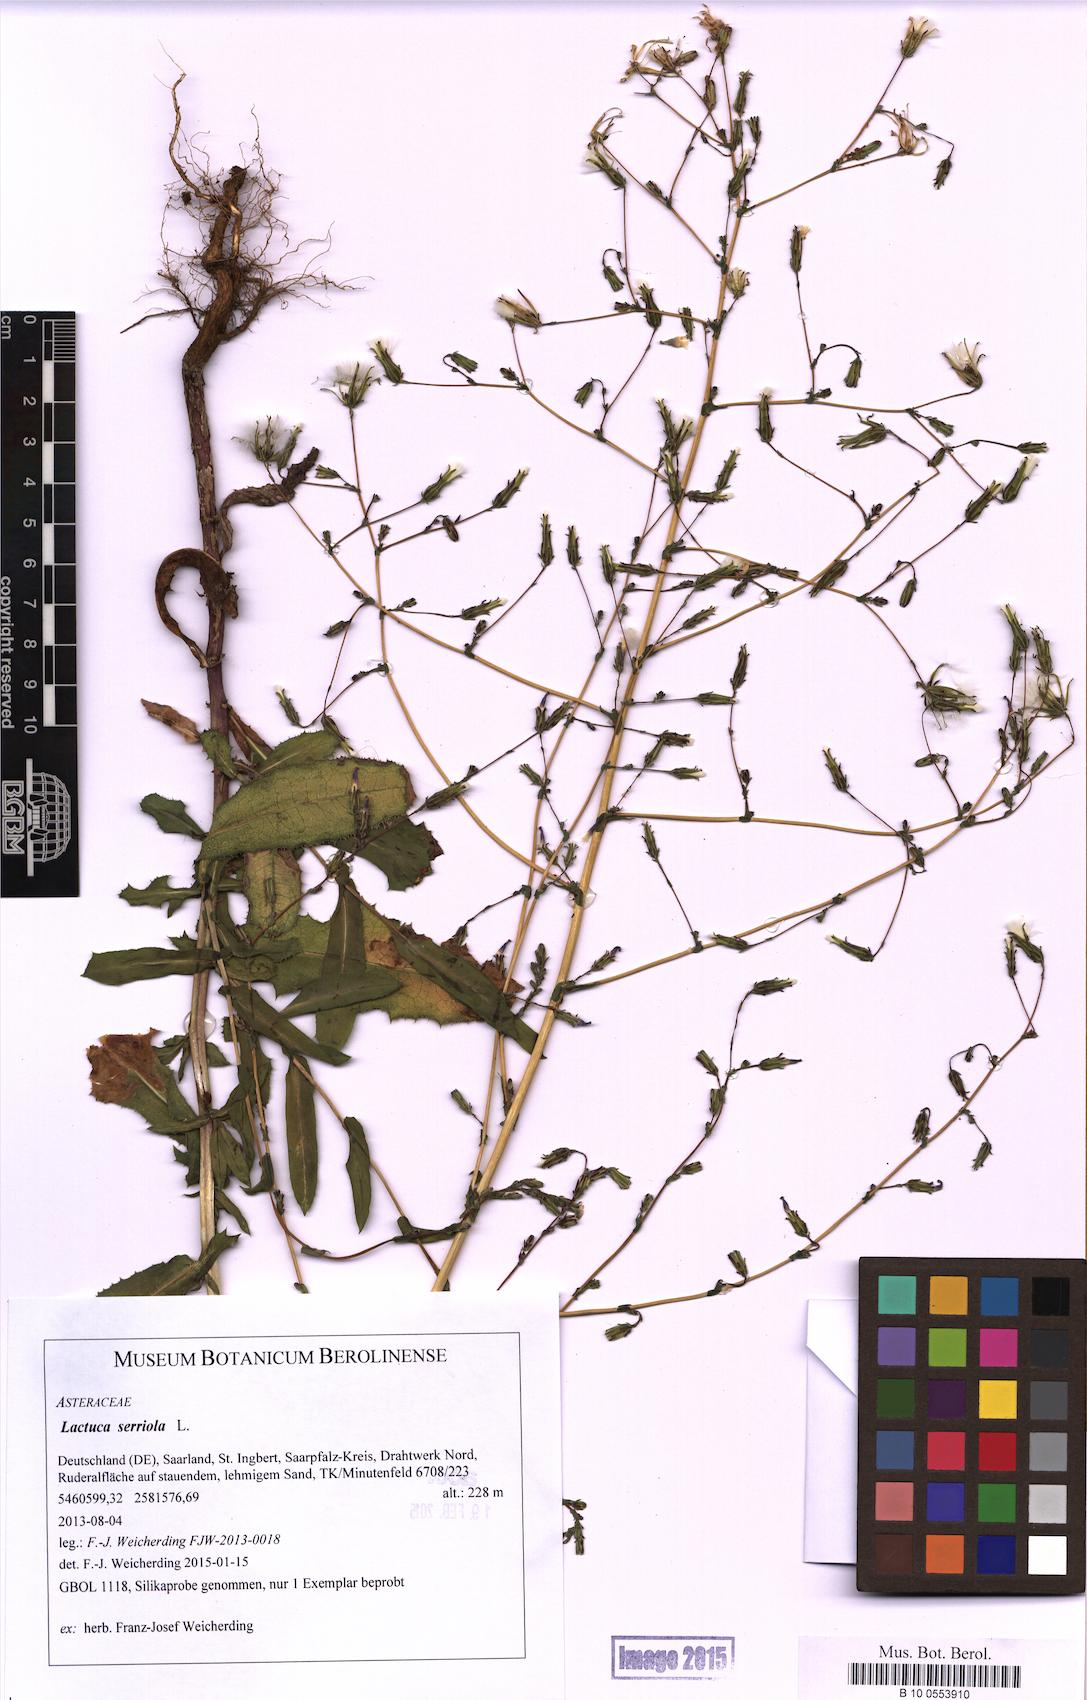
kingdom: Plantae
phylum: Tracheophyta
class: Magnoliopsida
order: Asterales
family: Asteraceae
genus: Lactuca
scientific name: Lactuca serriola
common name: Prickly lettuce
